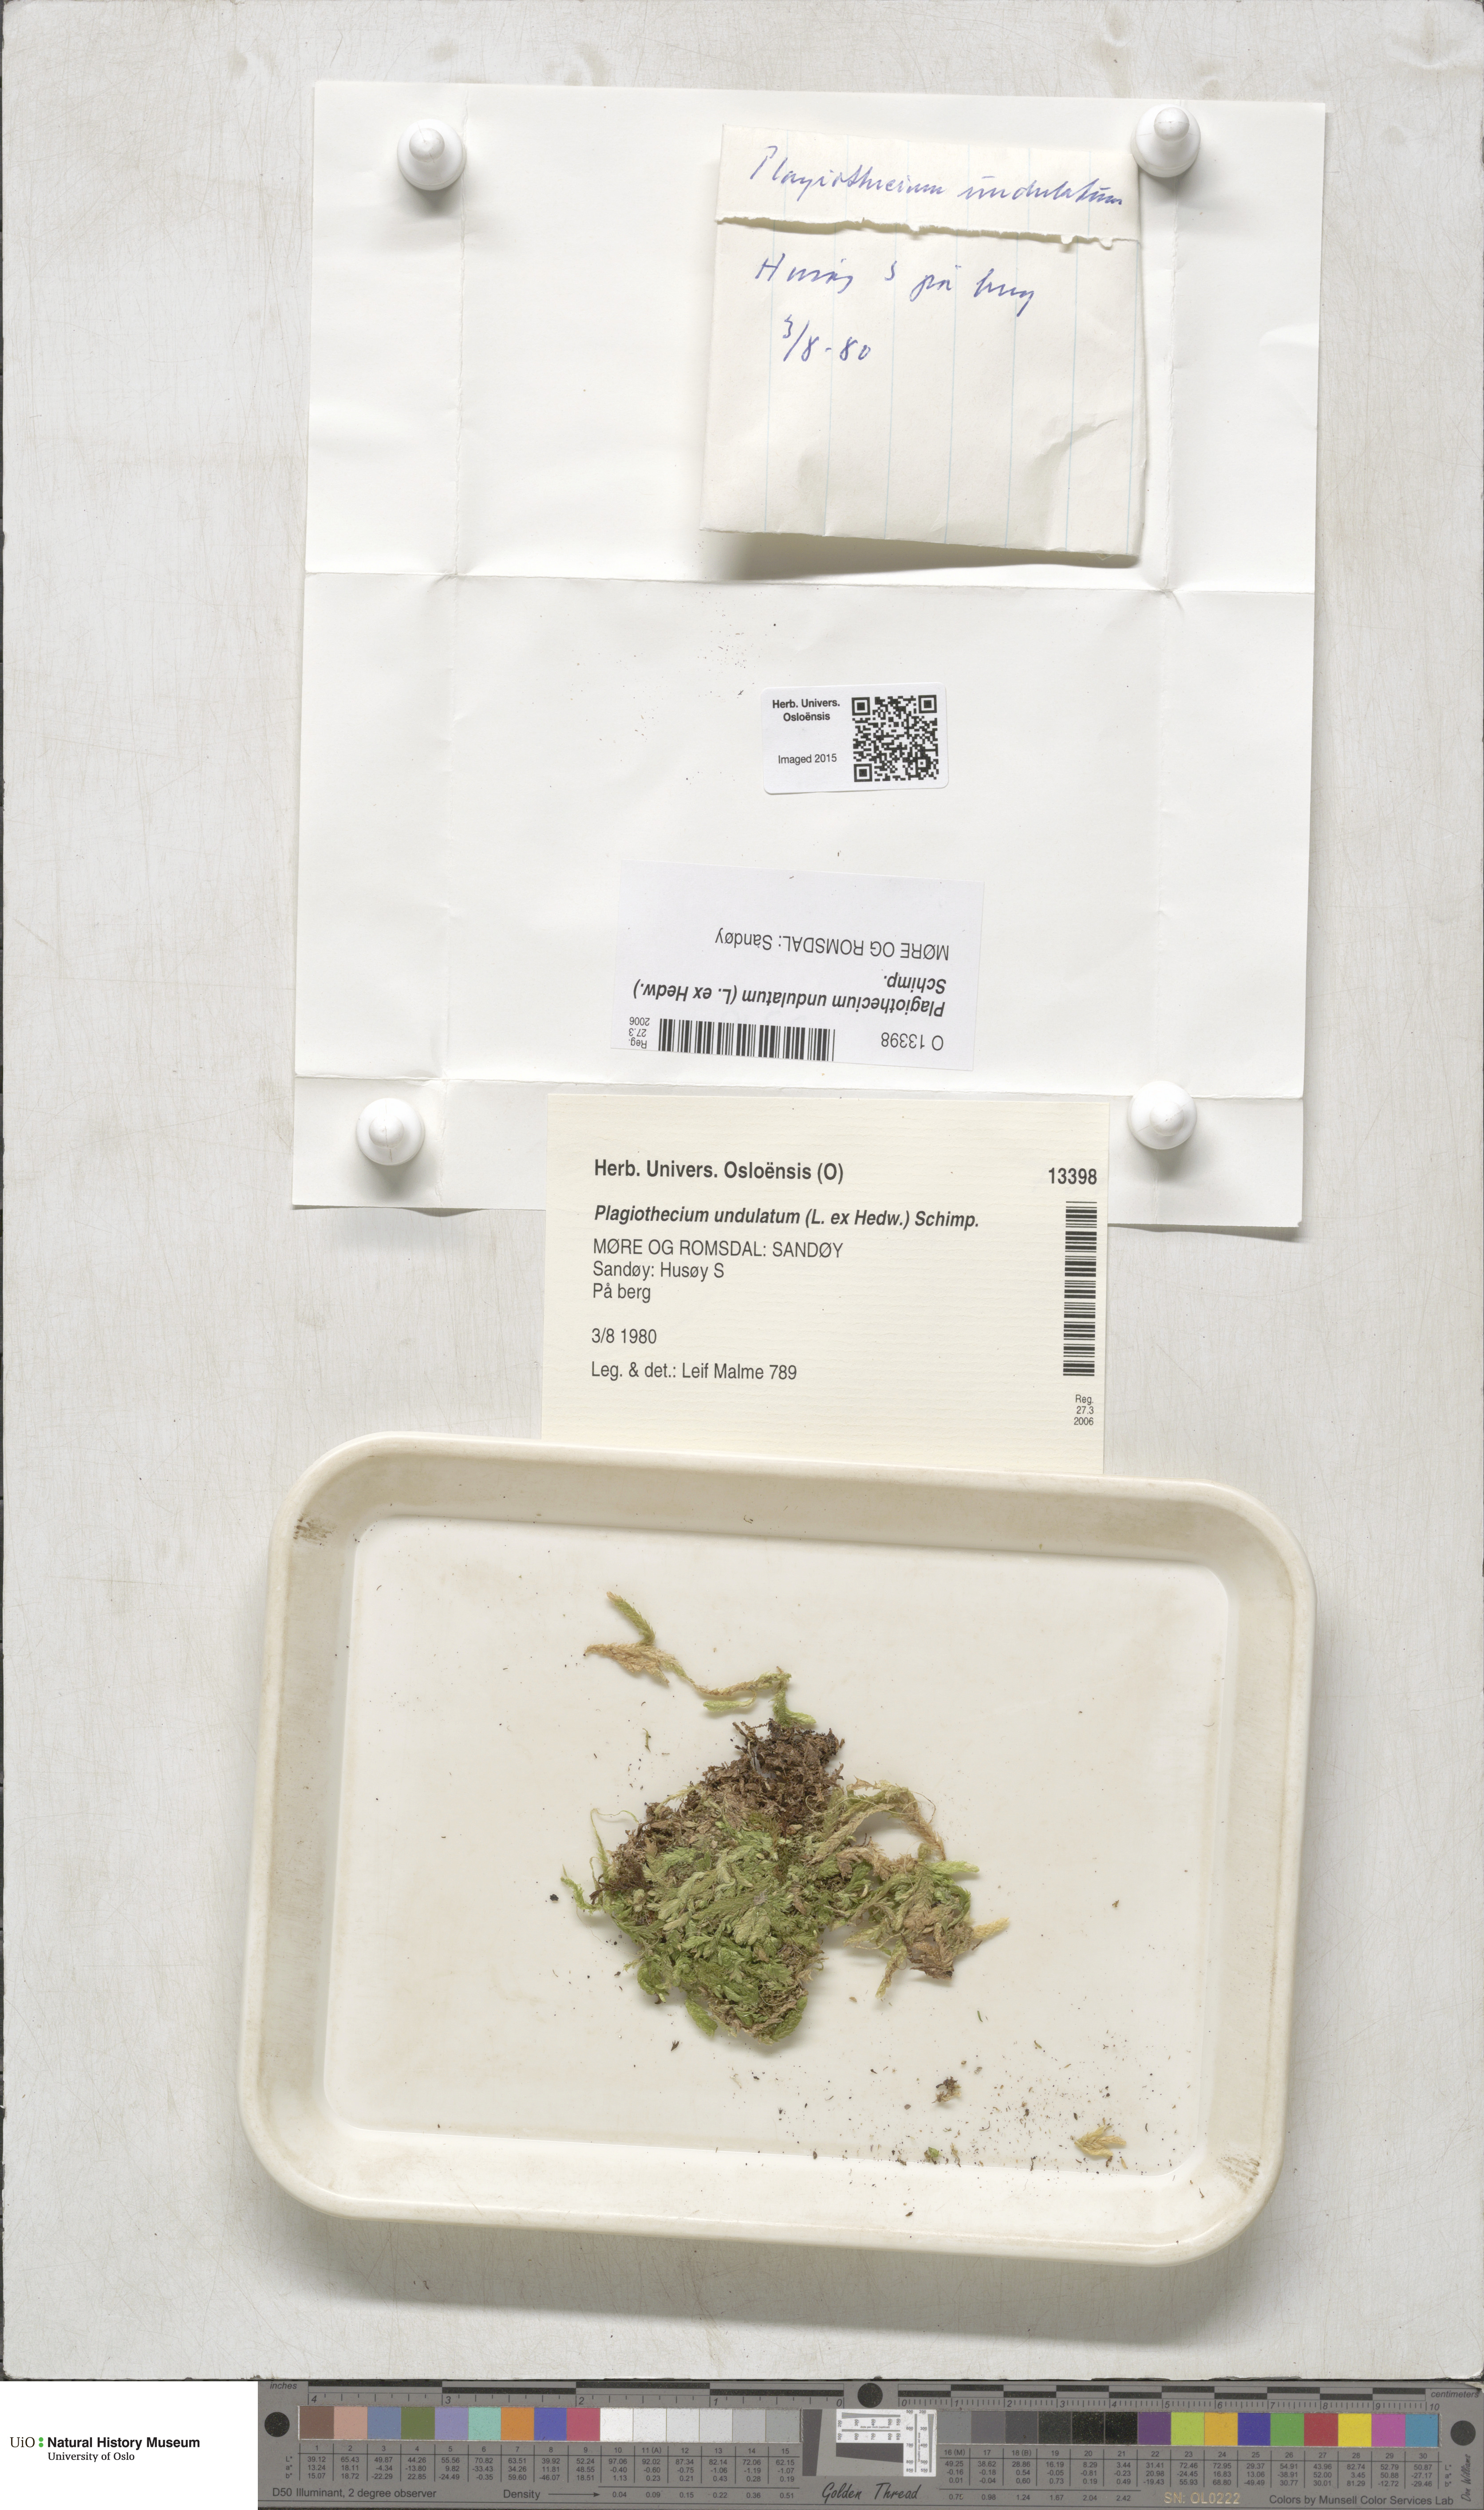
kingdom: Plantae
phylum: Bryophyta
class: Bryopsida
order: Hypnales
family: Plagiotheciaceae
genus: Plagiothecium
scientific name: Plagiothecium undulatum
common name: Waved silk-moss
